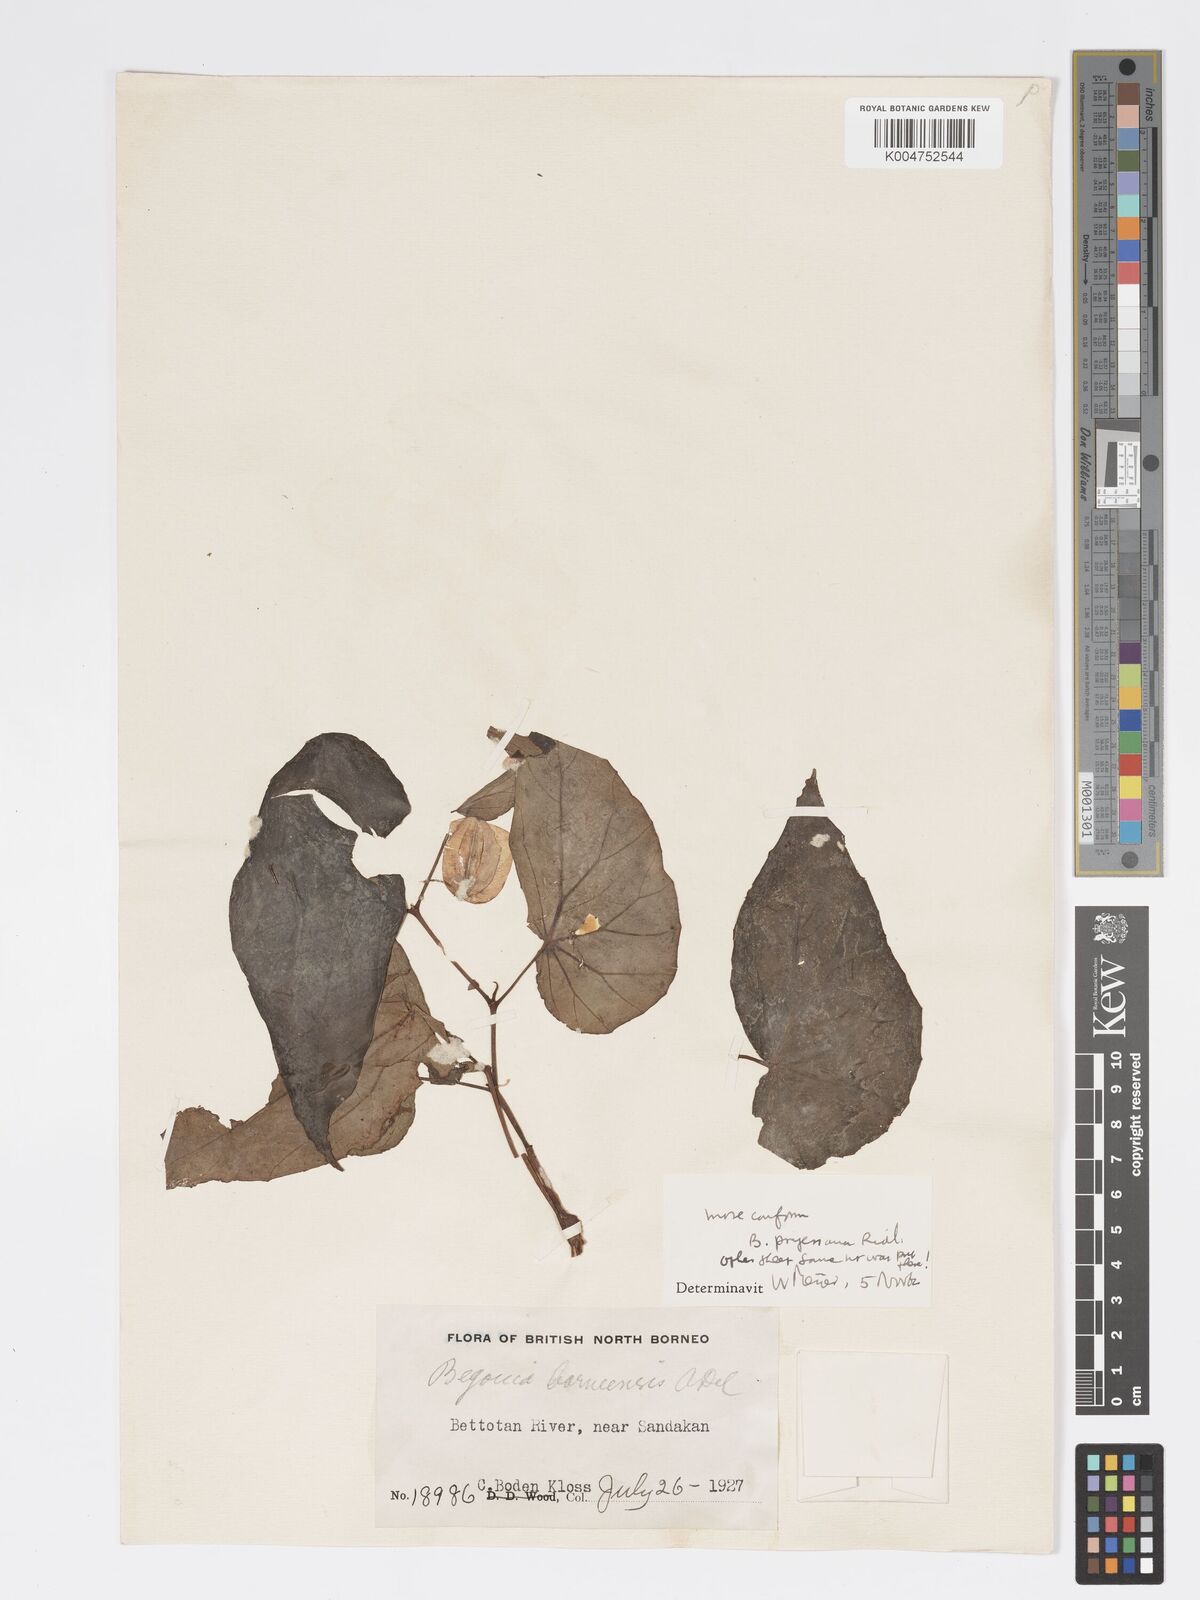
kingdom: Plantae
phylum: Tracheophyta
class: Magnoliopsida
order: Cucurbitales
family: Begoniaceae
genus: Begonia
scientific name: Begonia pryeriana
